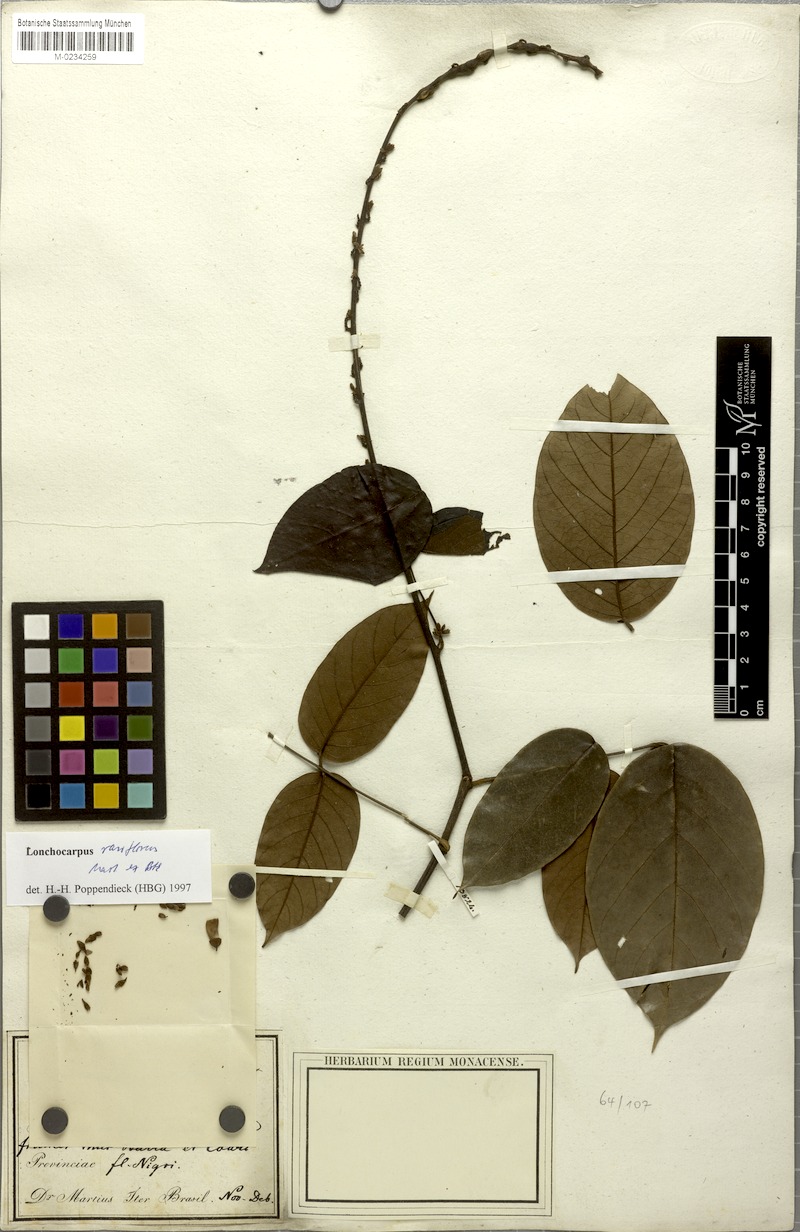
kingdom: Plantae
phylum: Tracheophyta
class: Magnoliopsida
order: Fabales
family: Fabaceae
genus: Deguelia
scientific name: Deguelia rariflora
